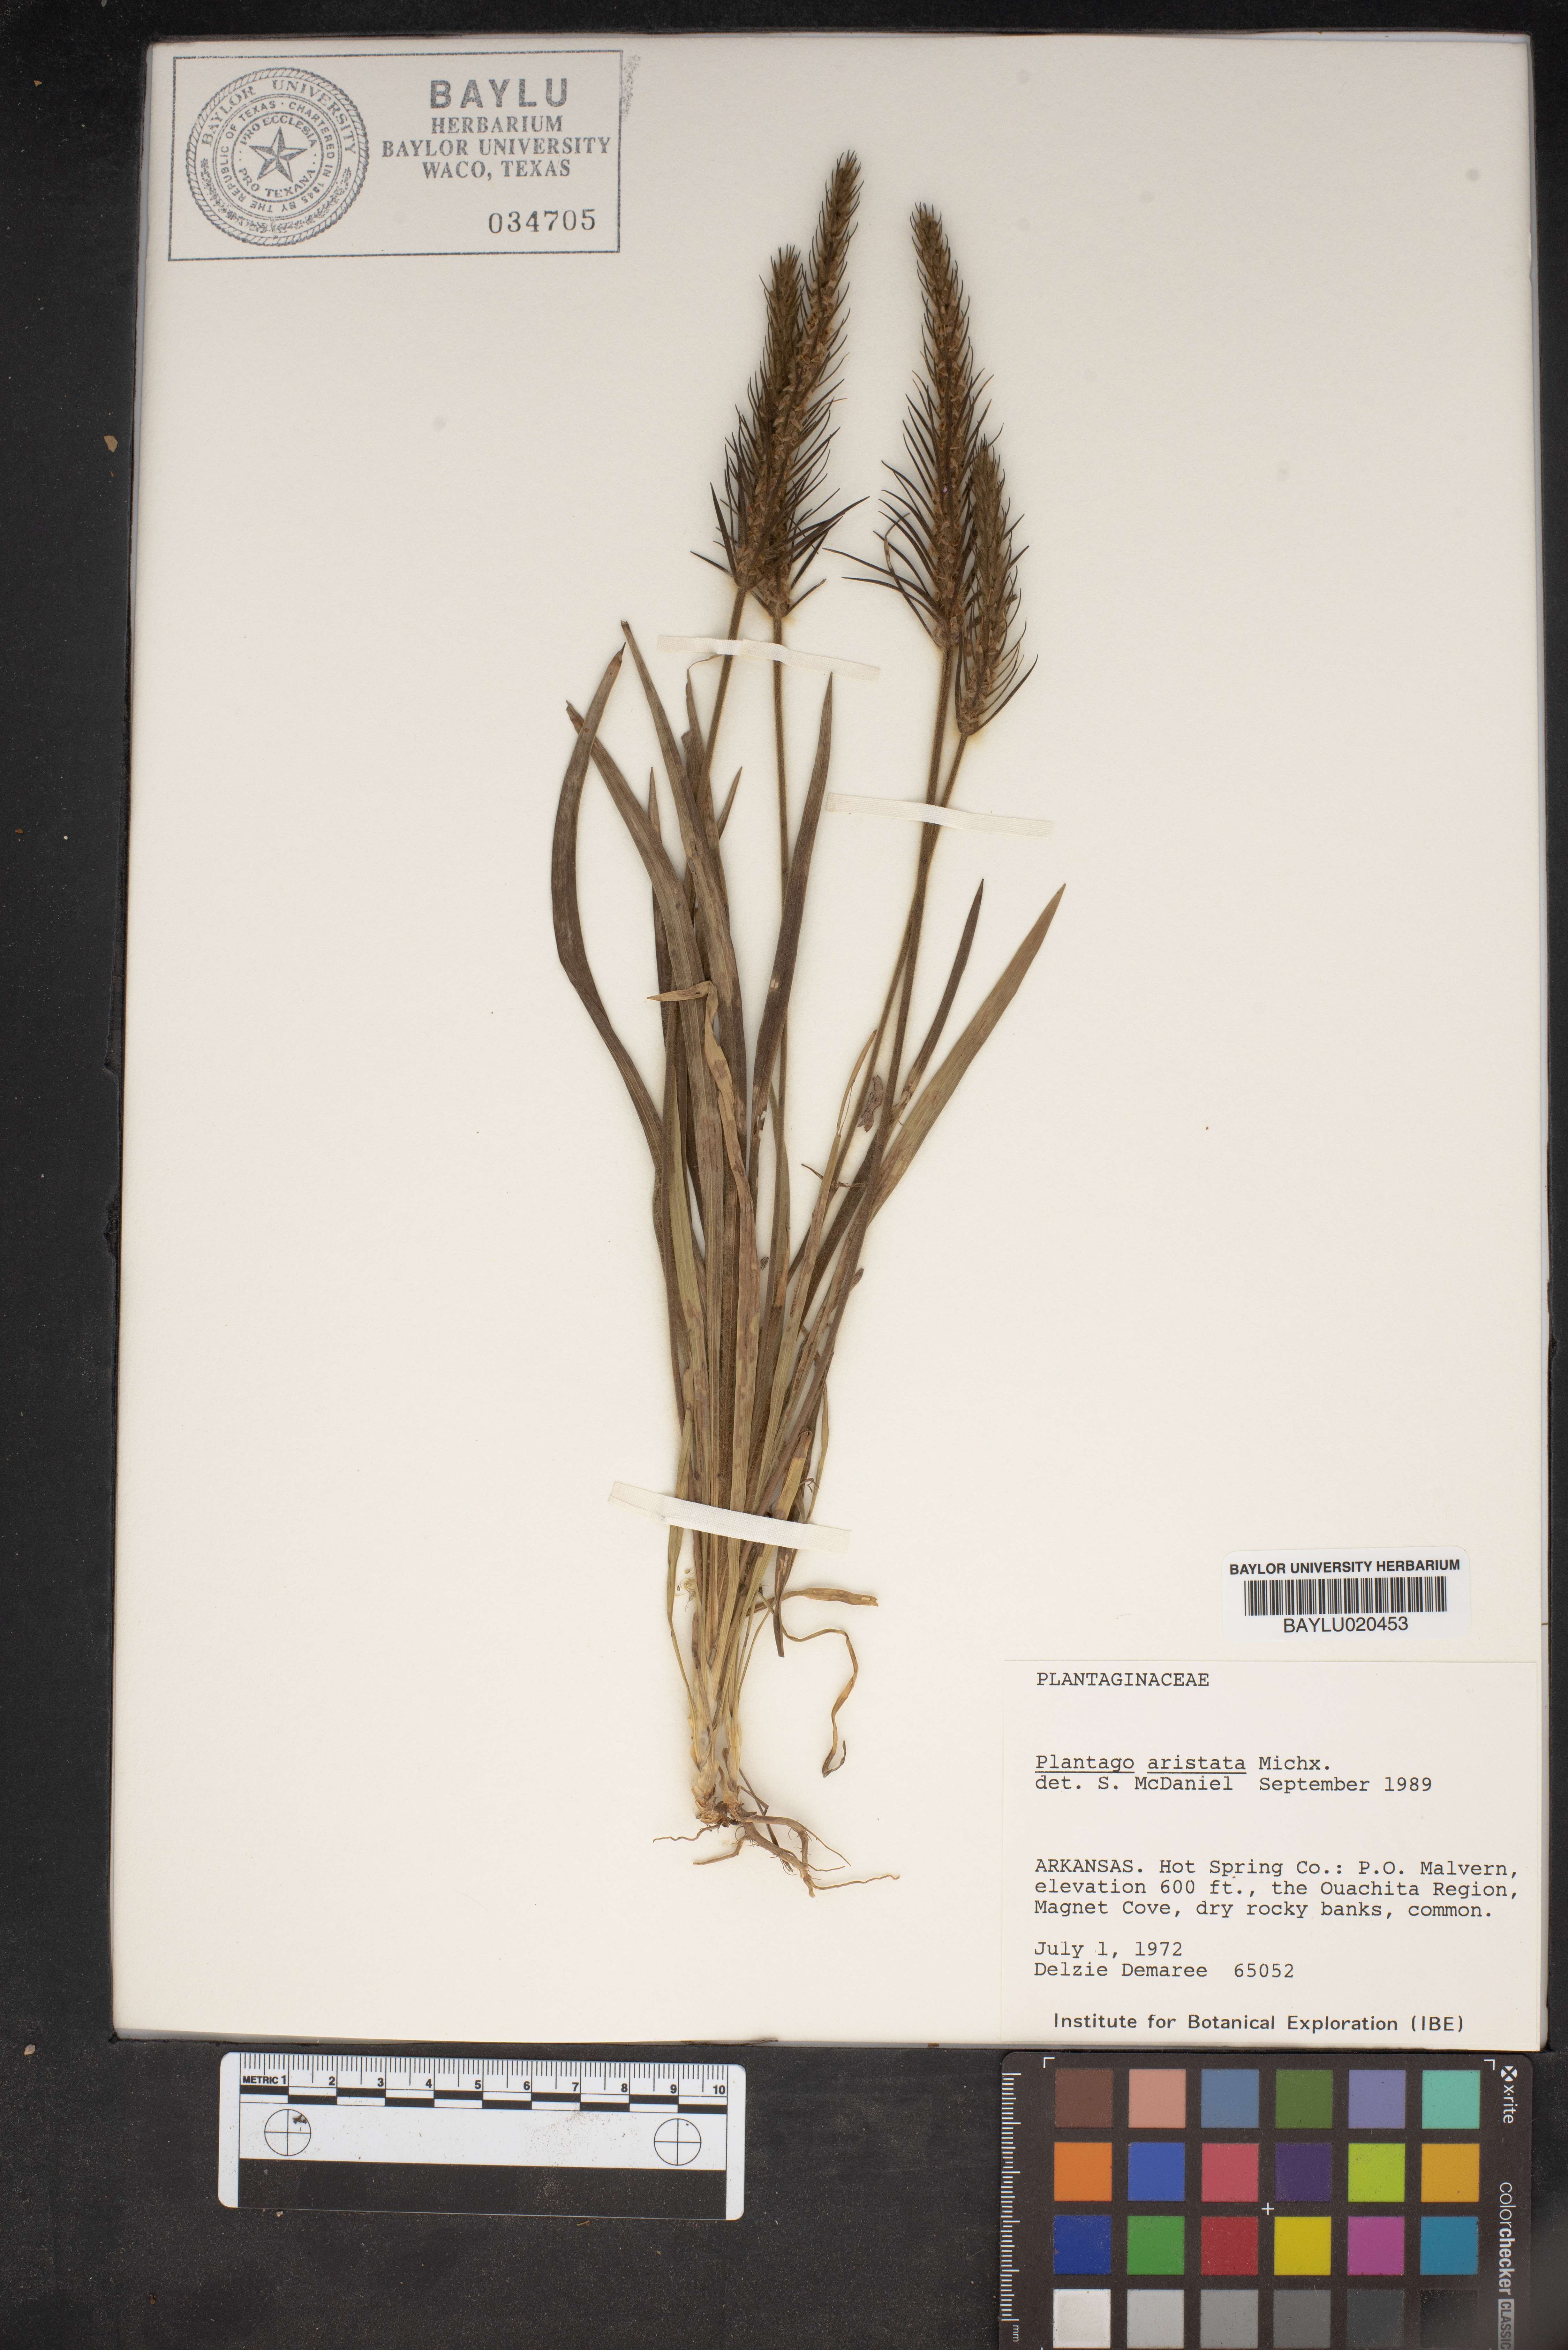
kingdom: Plantae
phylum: Tracheophyta
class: Magnoliopsida
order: Lamiales
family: Plantaginaceae
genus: Plantago
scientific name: Plantago aristata
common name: Bracted plantain
